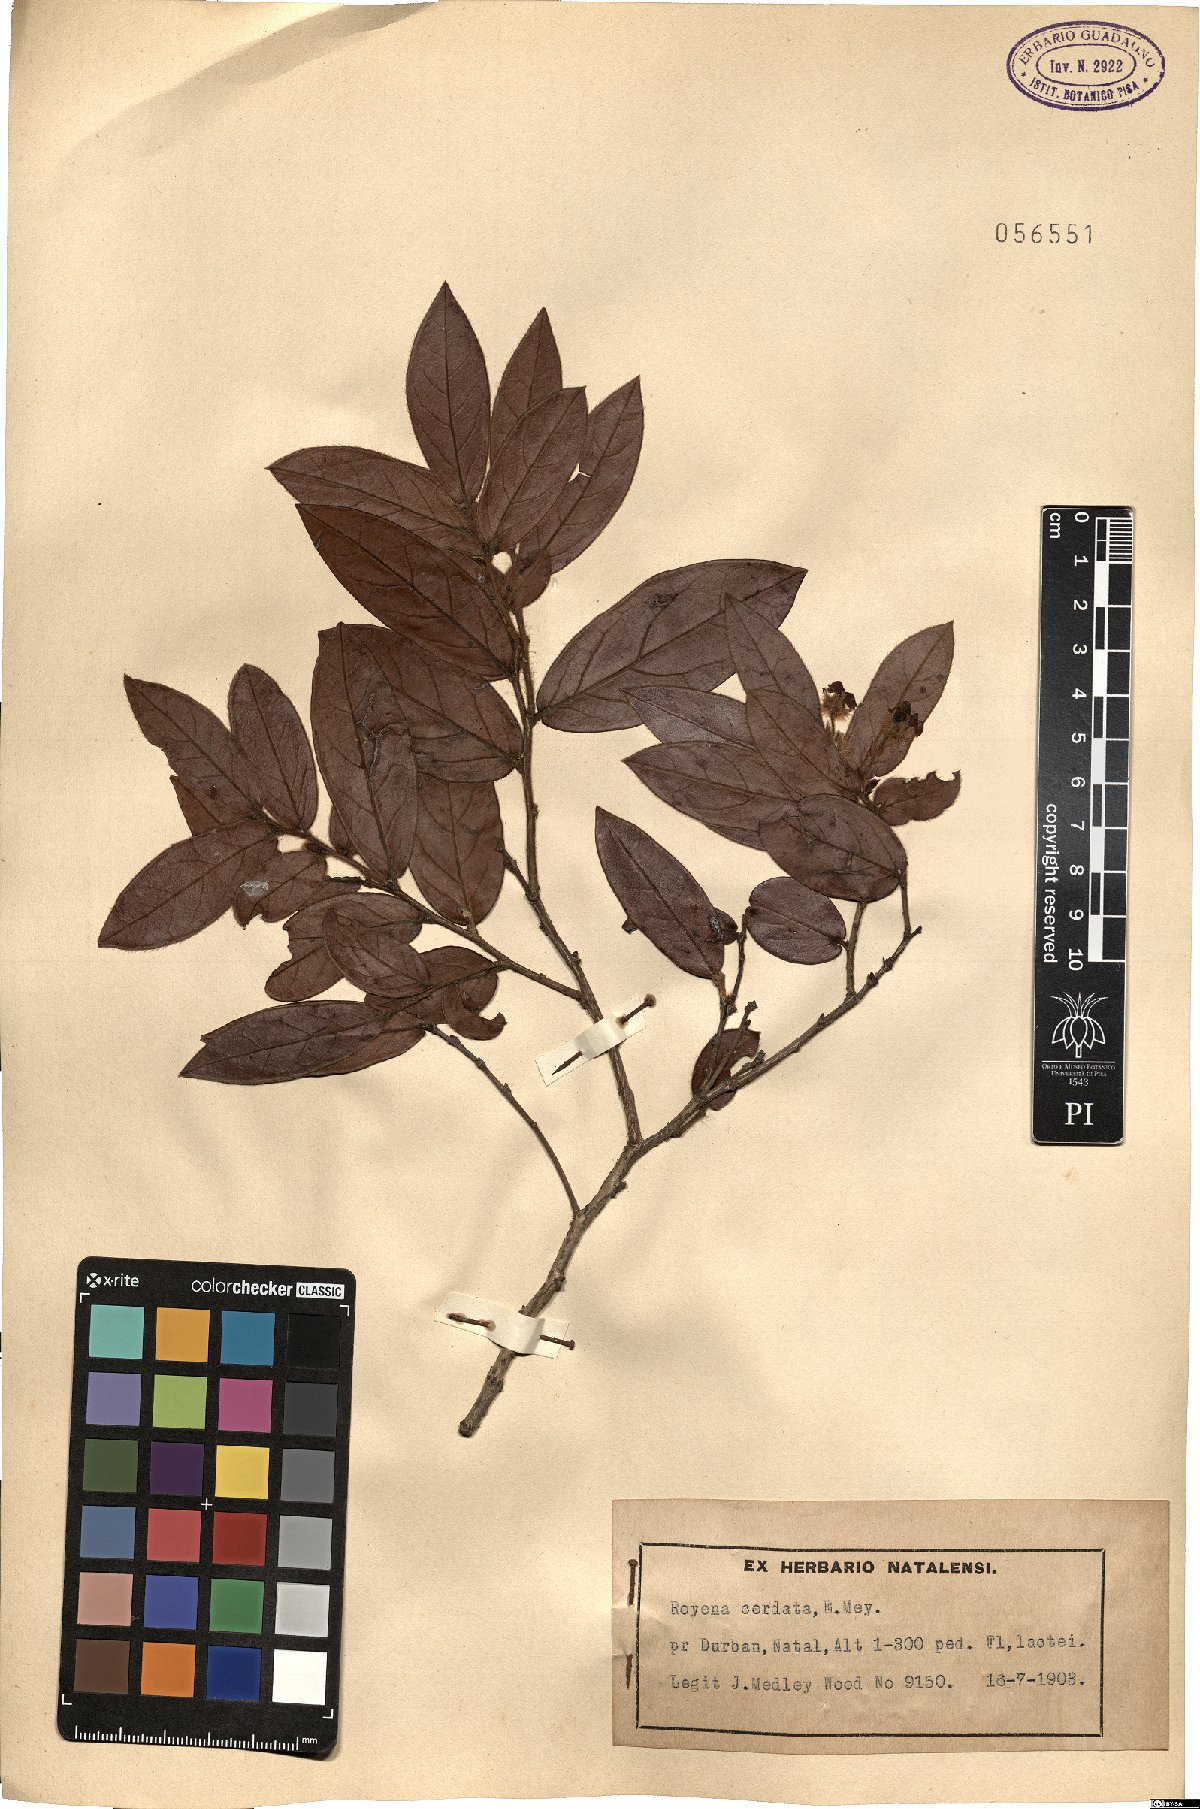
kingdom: Plantae
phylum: Tracheophyta
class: Magnoliopsida
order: Ericales
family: Ebenaceae
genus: Diospyros
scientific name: Diospyros Royena cordata
